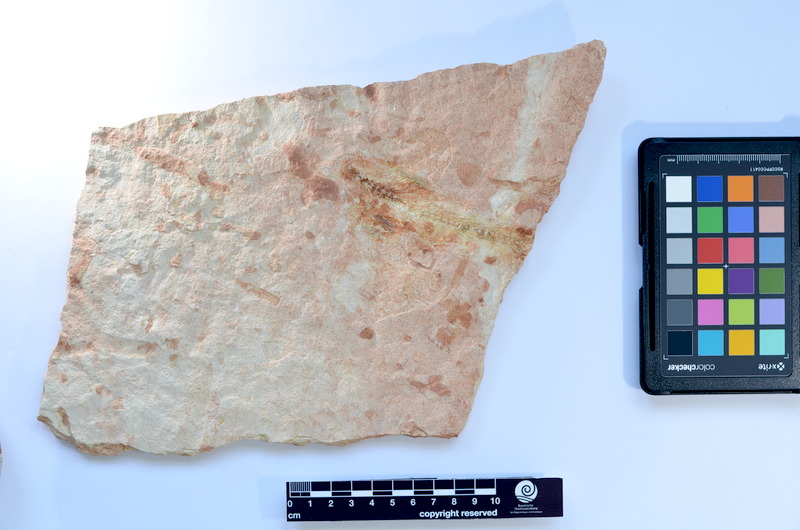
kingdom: Animalia
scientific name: Animalia
